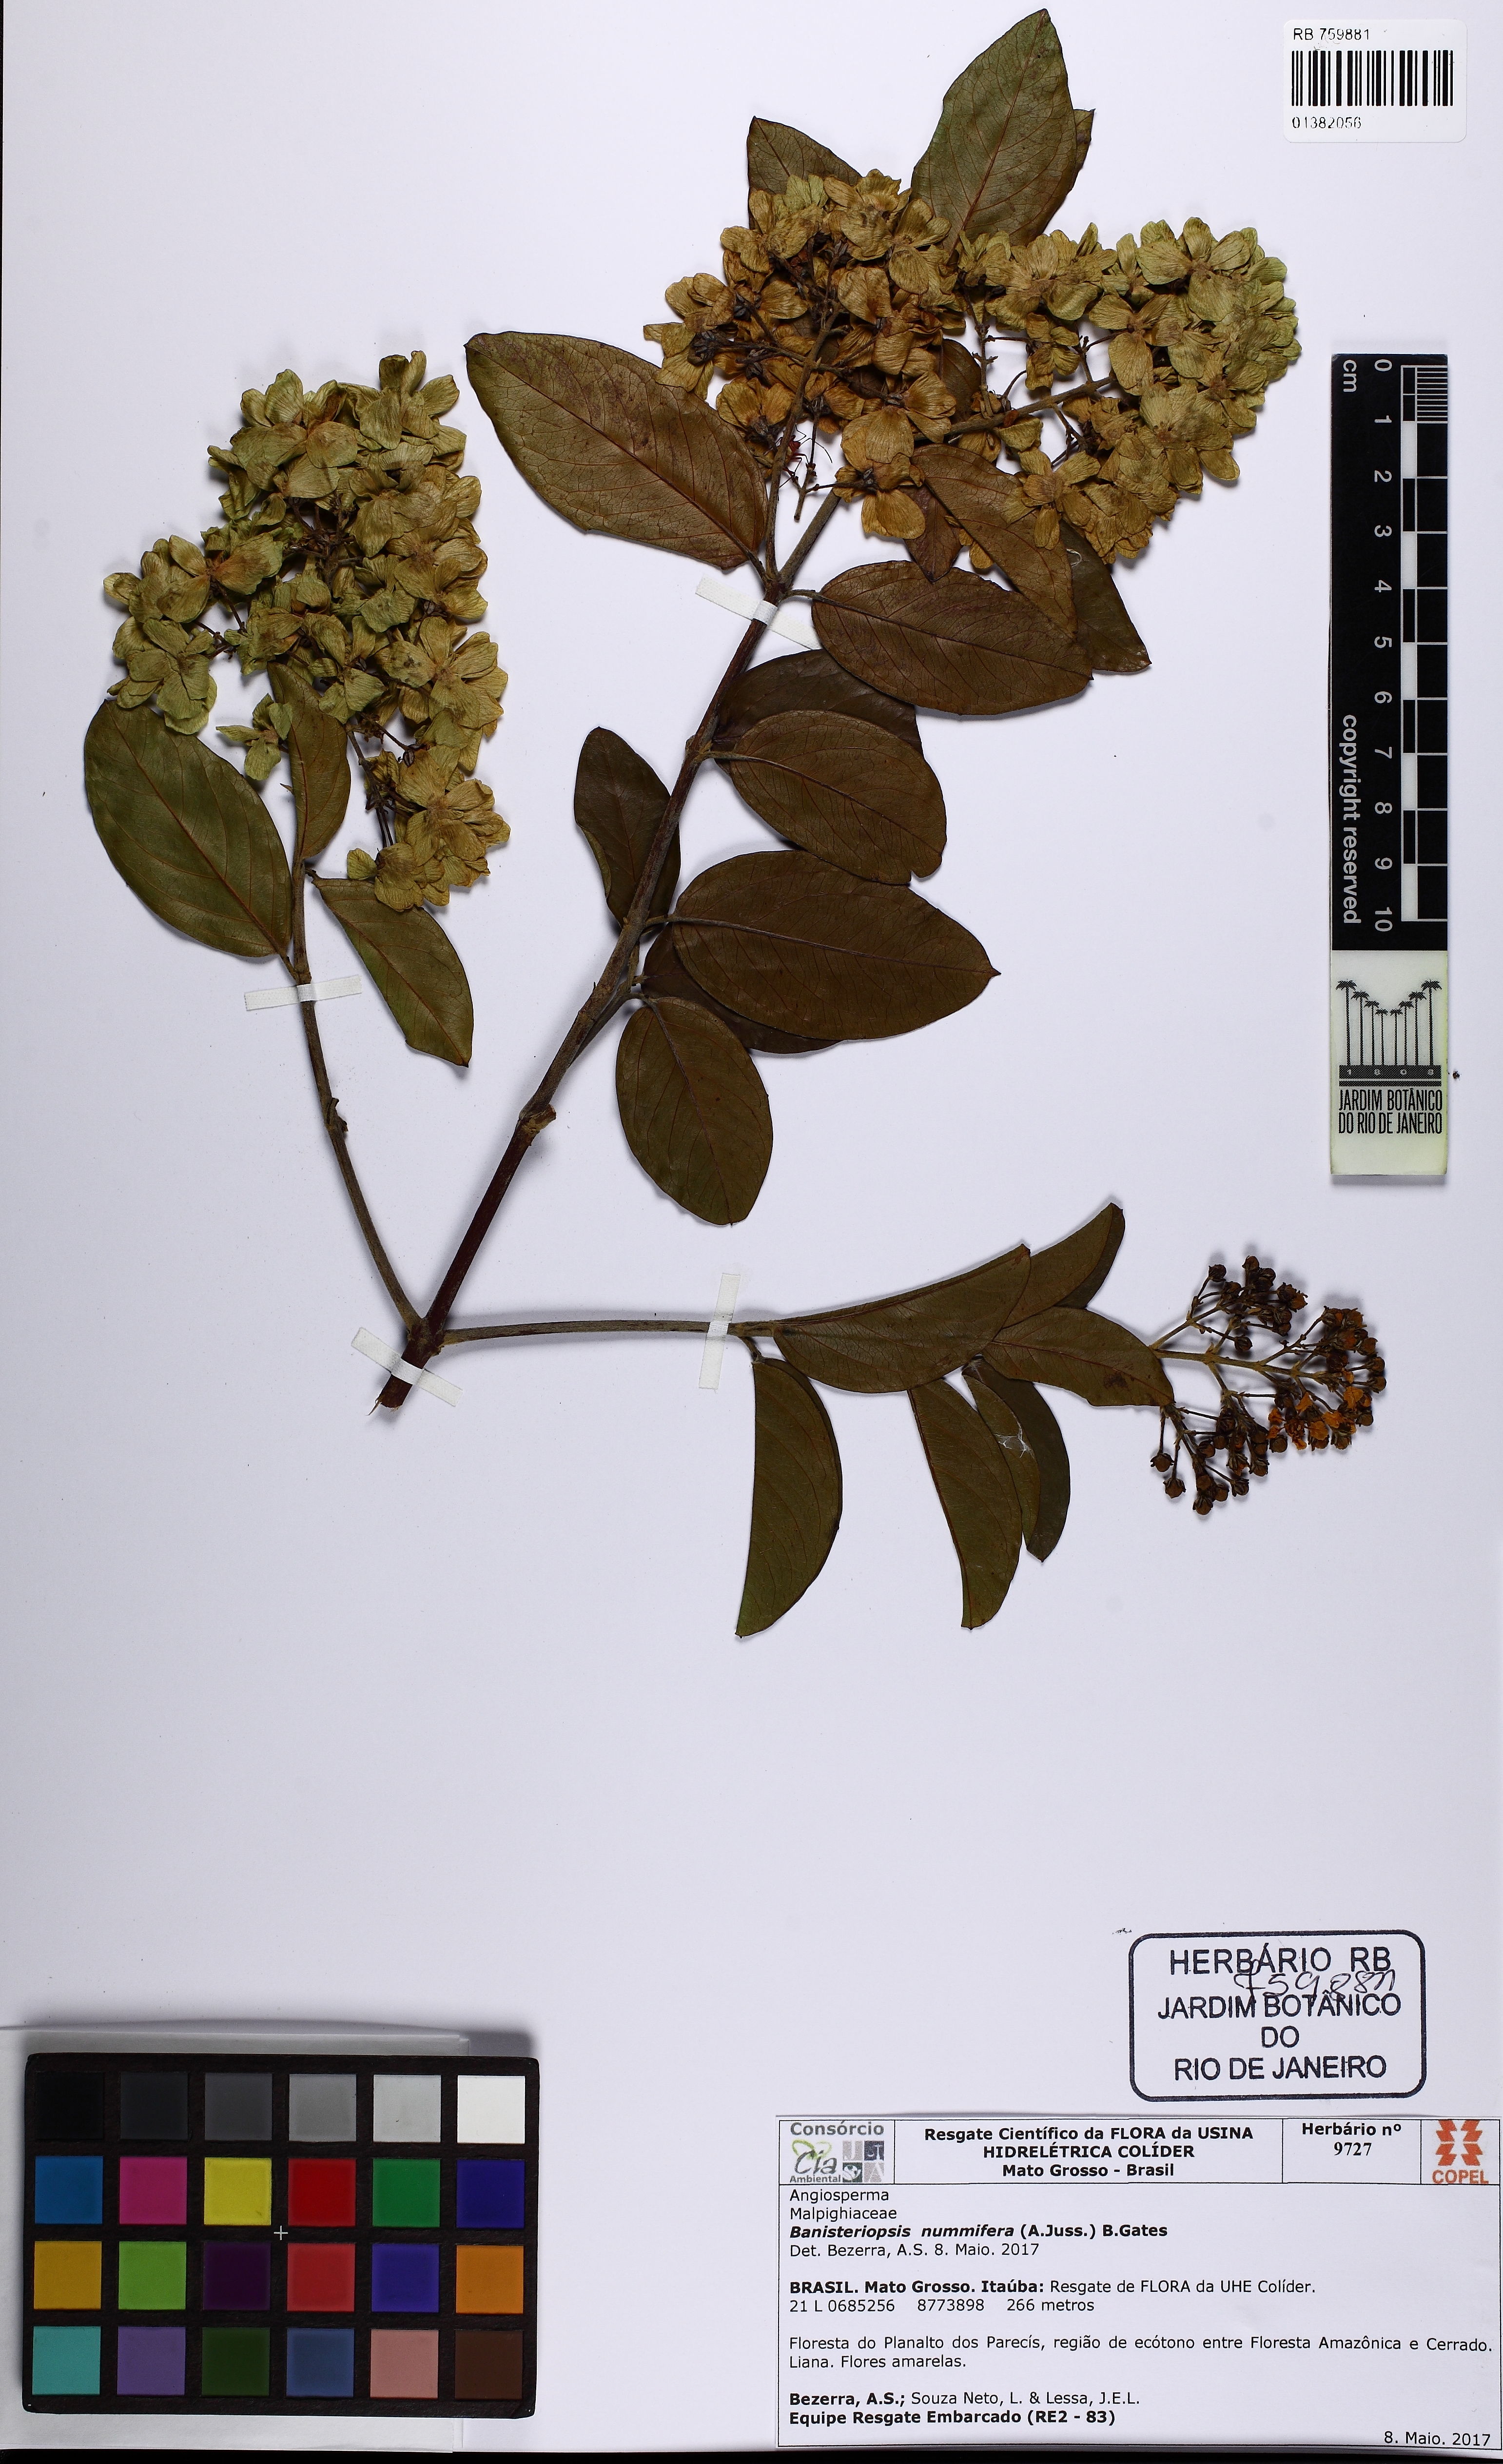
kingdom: Plantae
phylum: Tracheophyta
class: Magnoliopsida
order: Malpighiales
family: Malpighiaceae
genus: Diplopterys
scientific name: Diplopterys lutea
